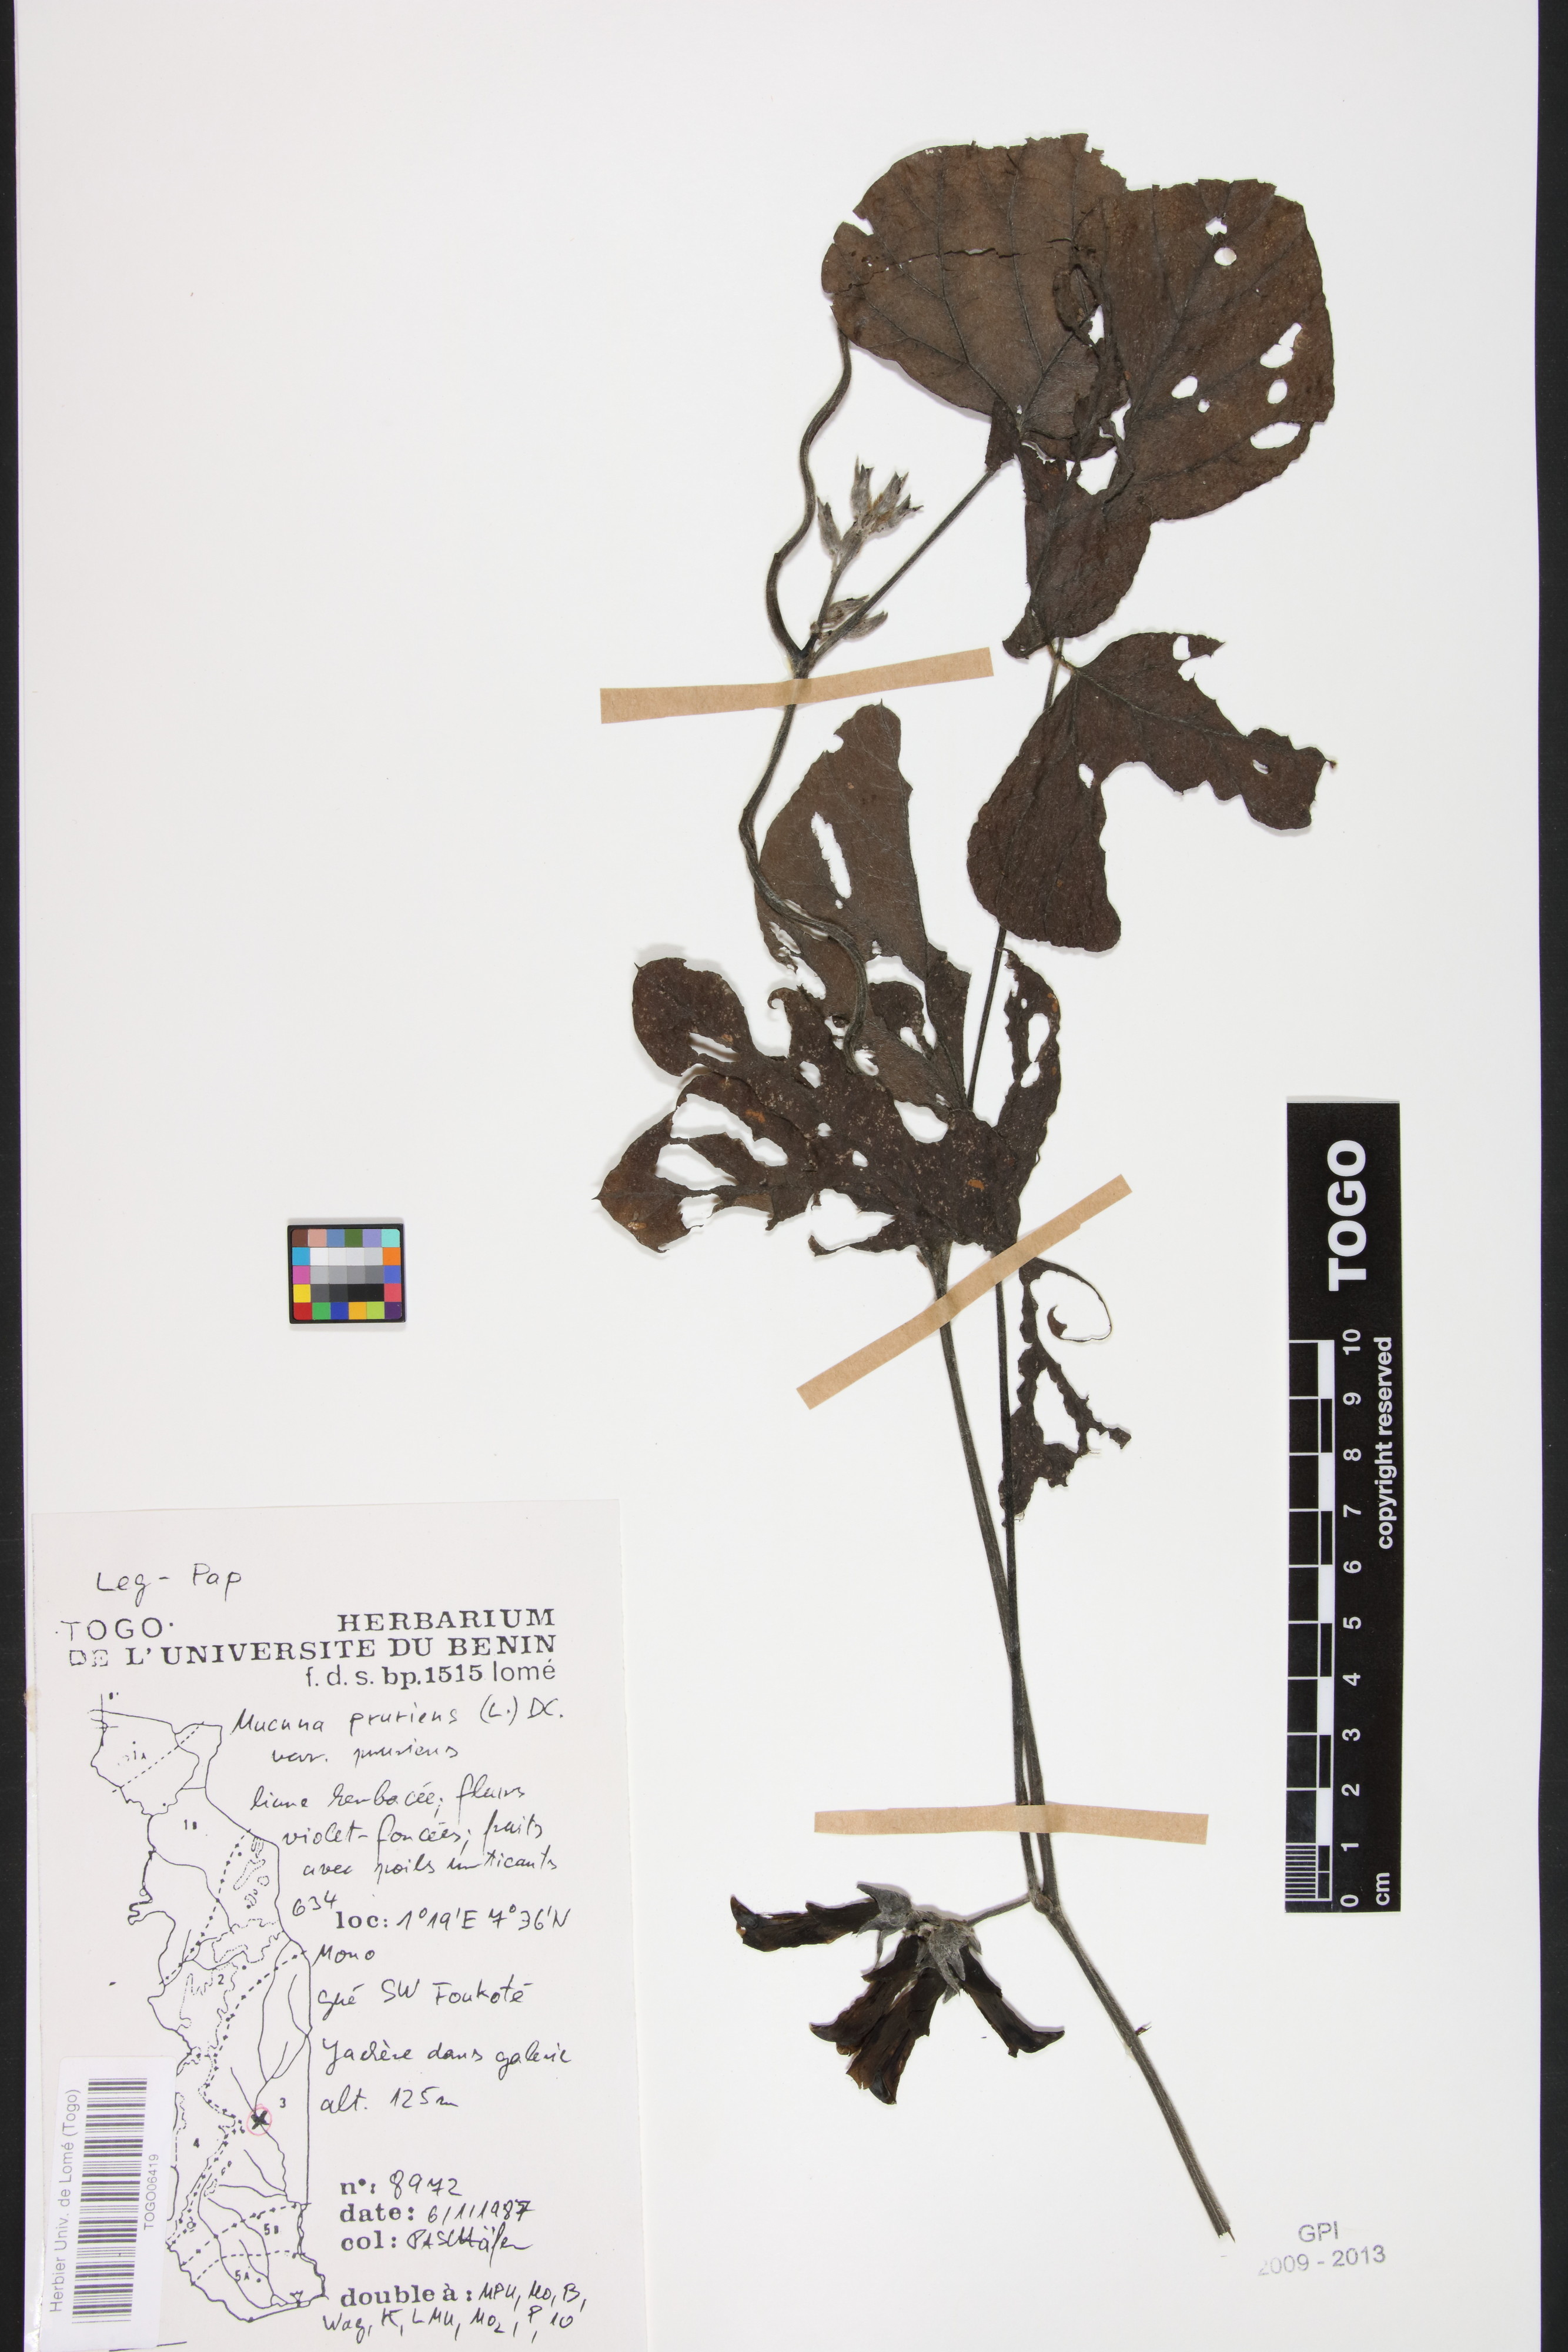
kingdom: Plantae
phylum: Tracheophyta
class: Magnoliopsida
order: Fabales
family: Fabaceae
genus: Mucuna
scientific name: Mucuna pruriens
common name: Cow-itch
